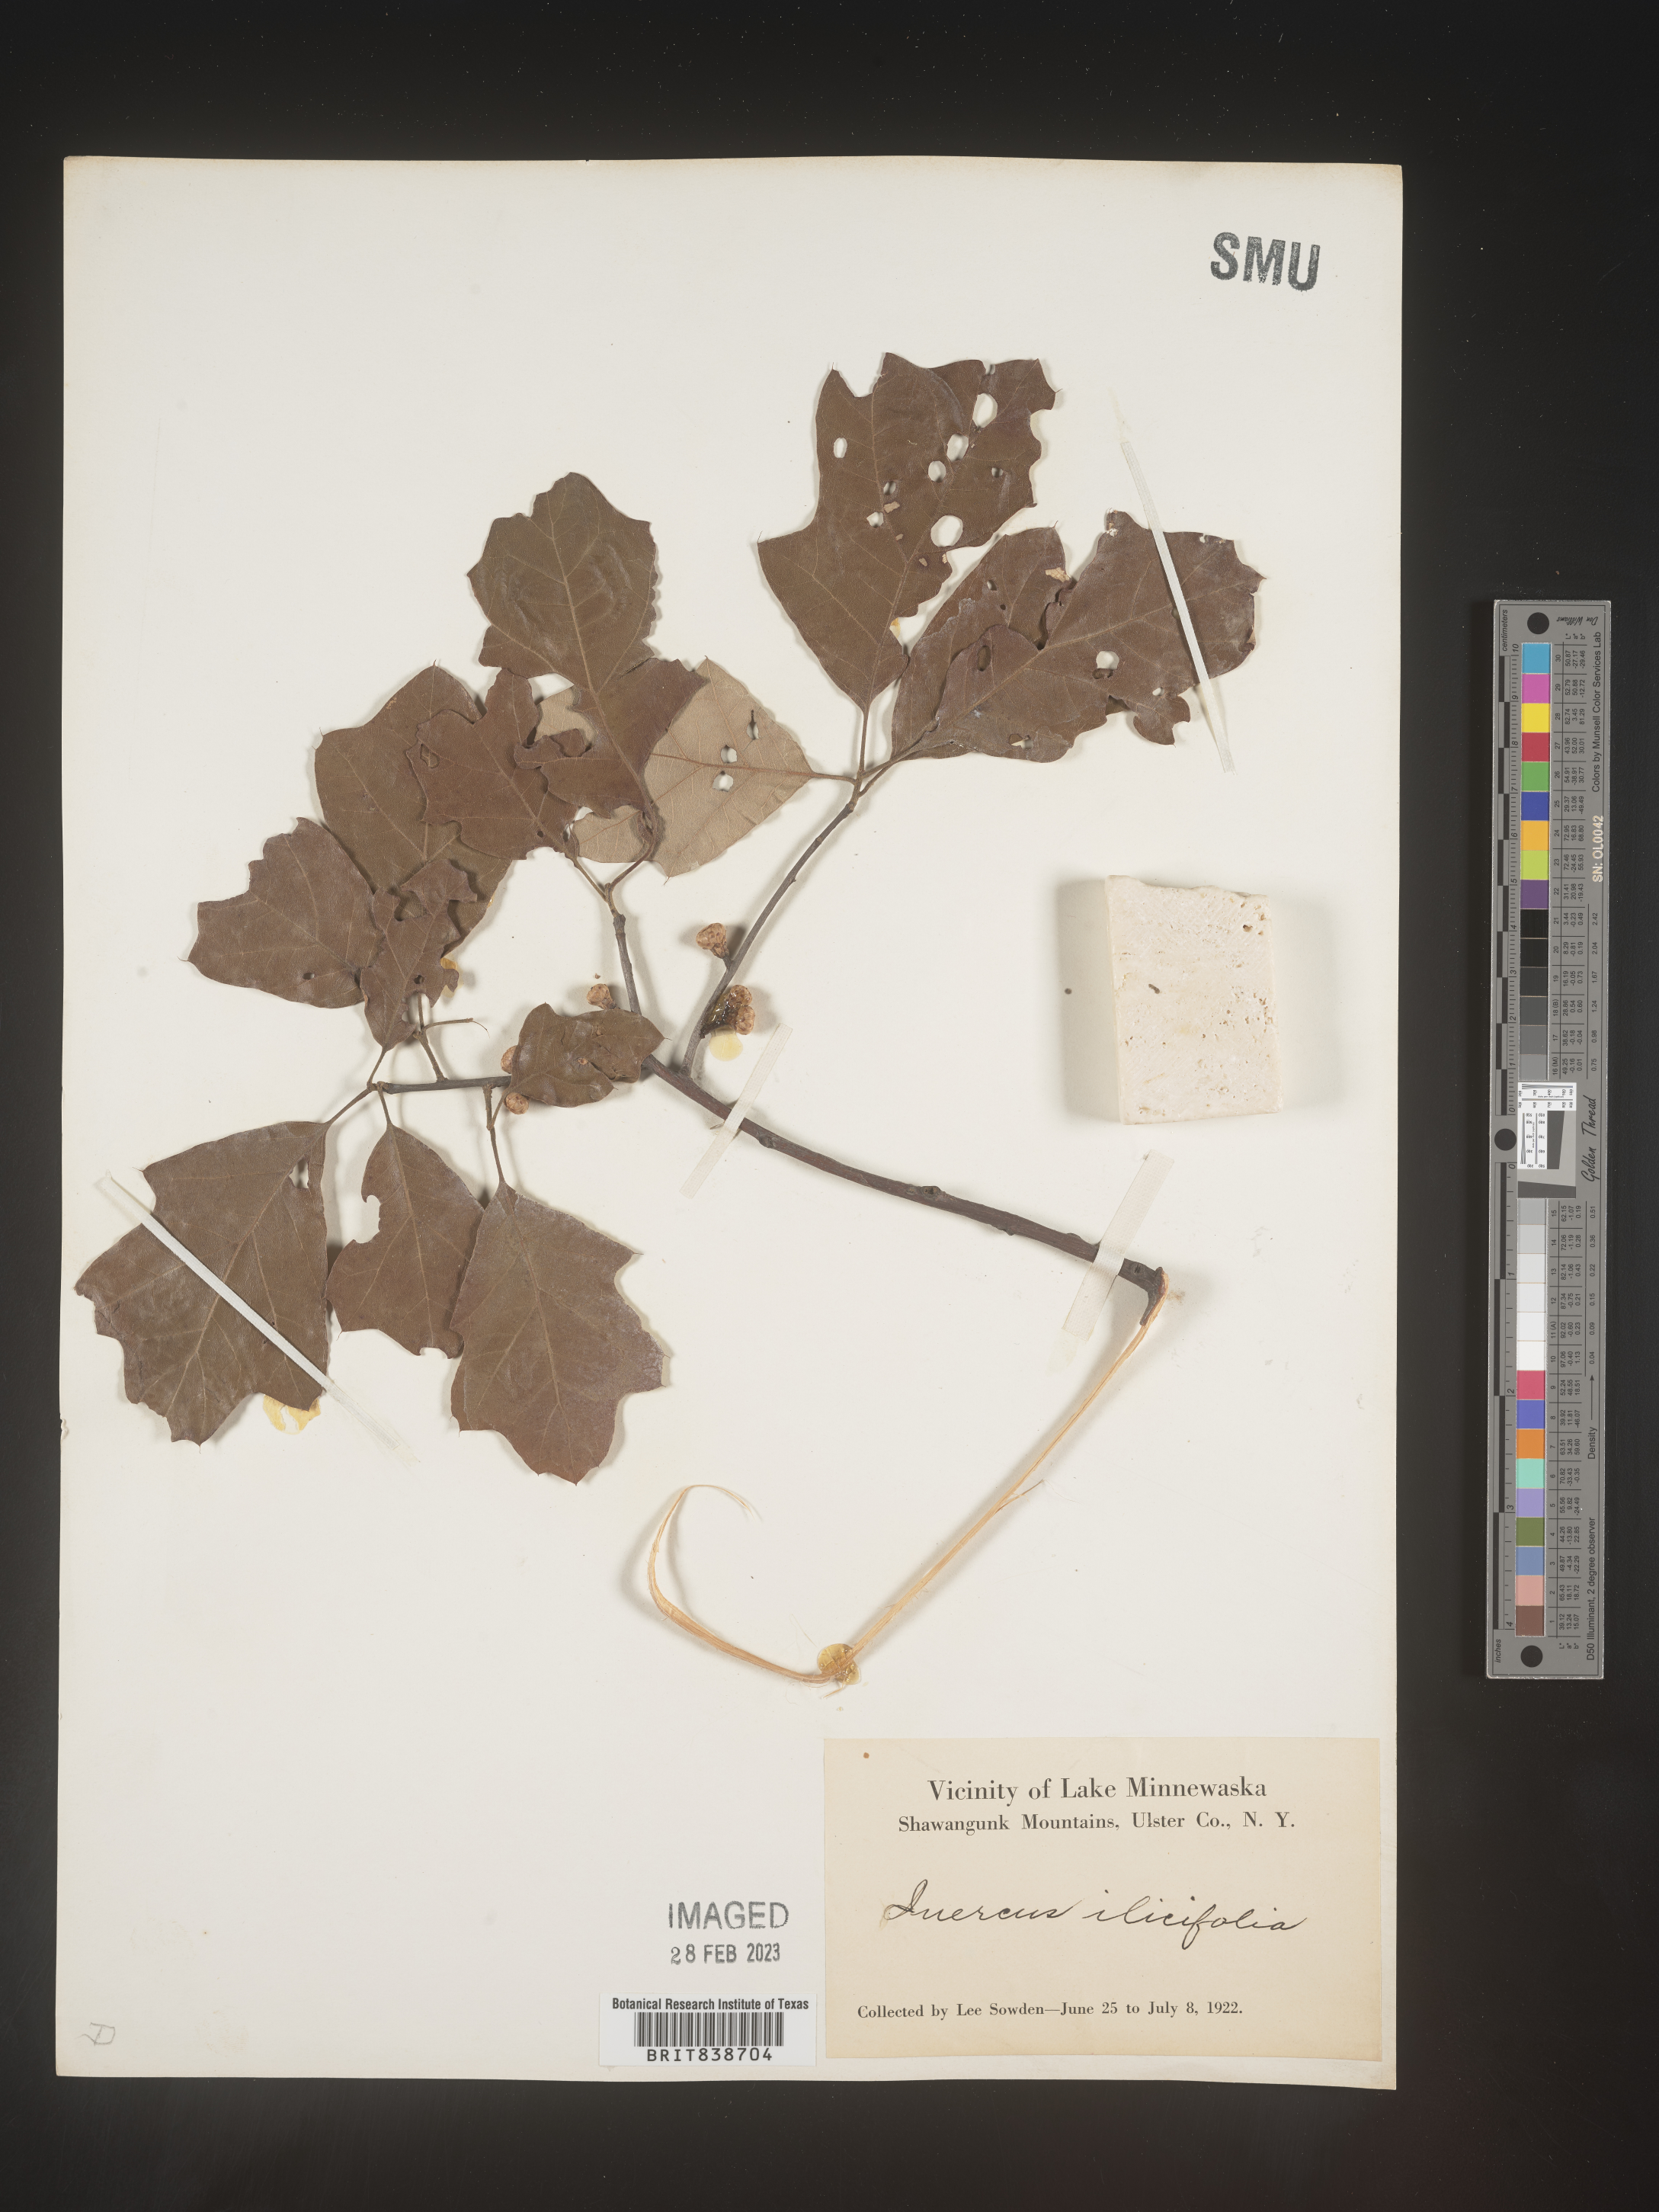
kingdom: Plantae
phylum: Tracheophyta
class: Magnoliopsida
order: Fagales
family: Fagaceae
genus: Quercus
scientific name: Quercus ilicifolia
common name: Bear oak
